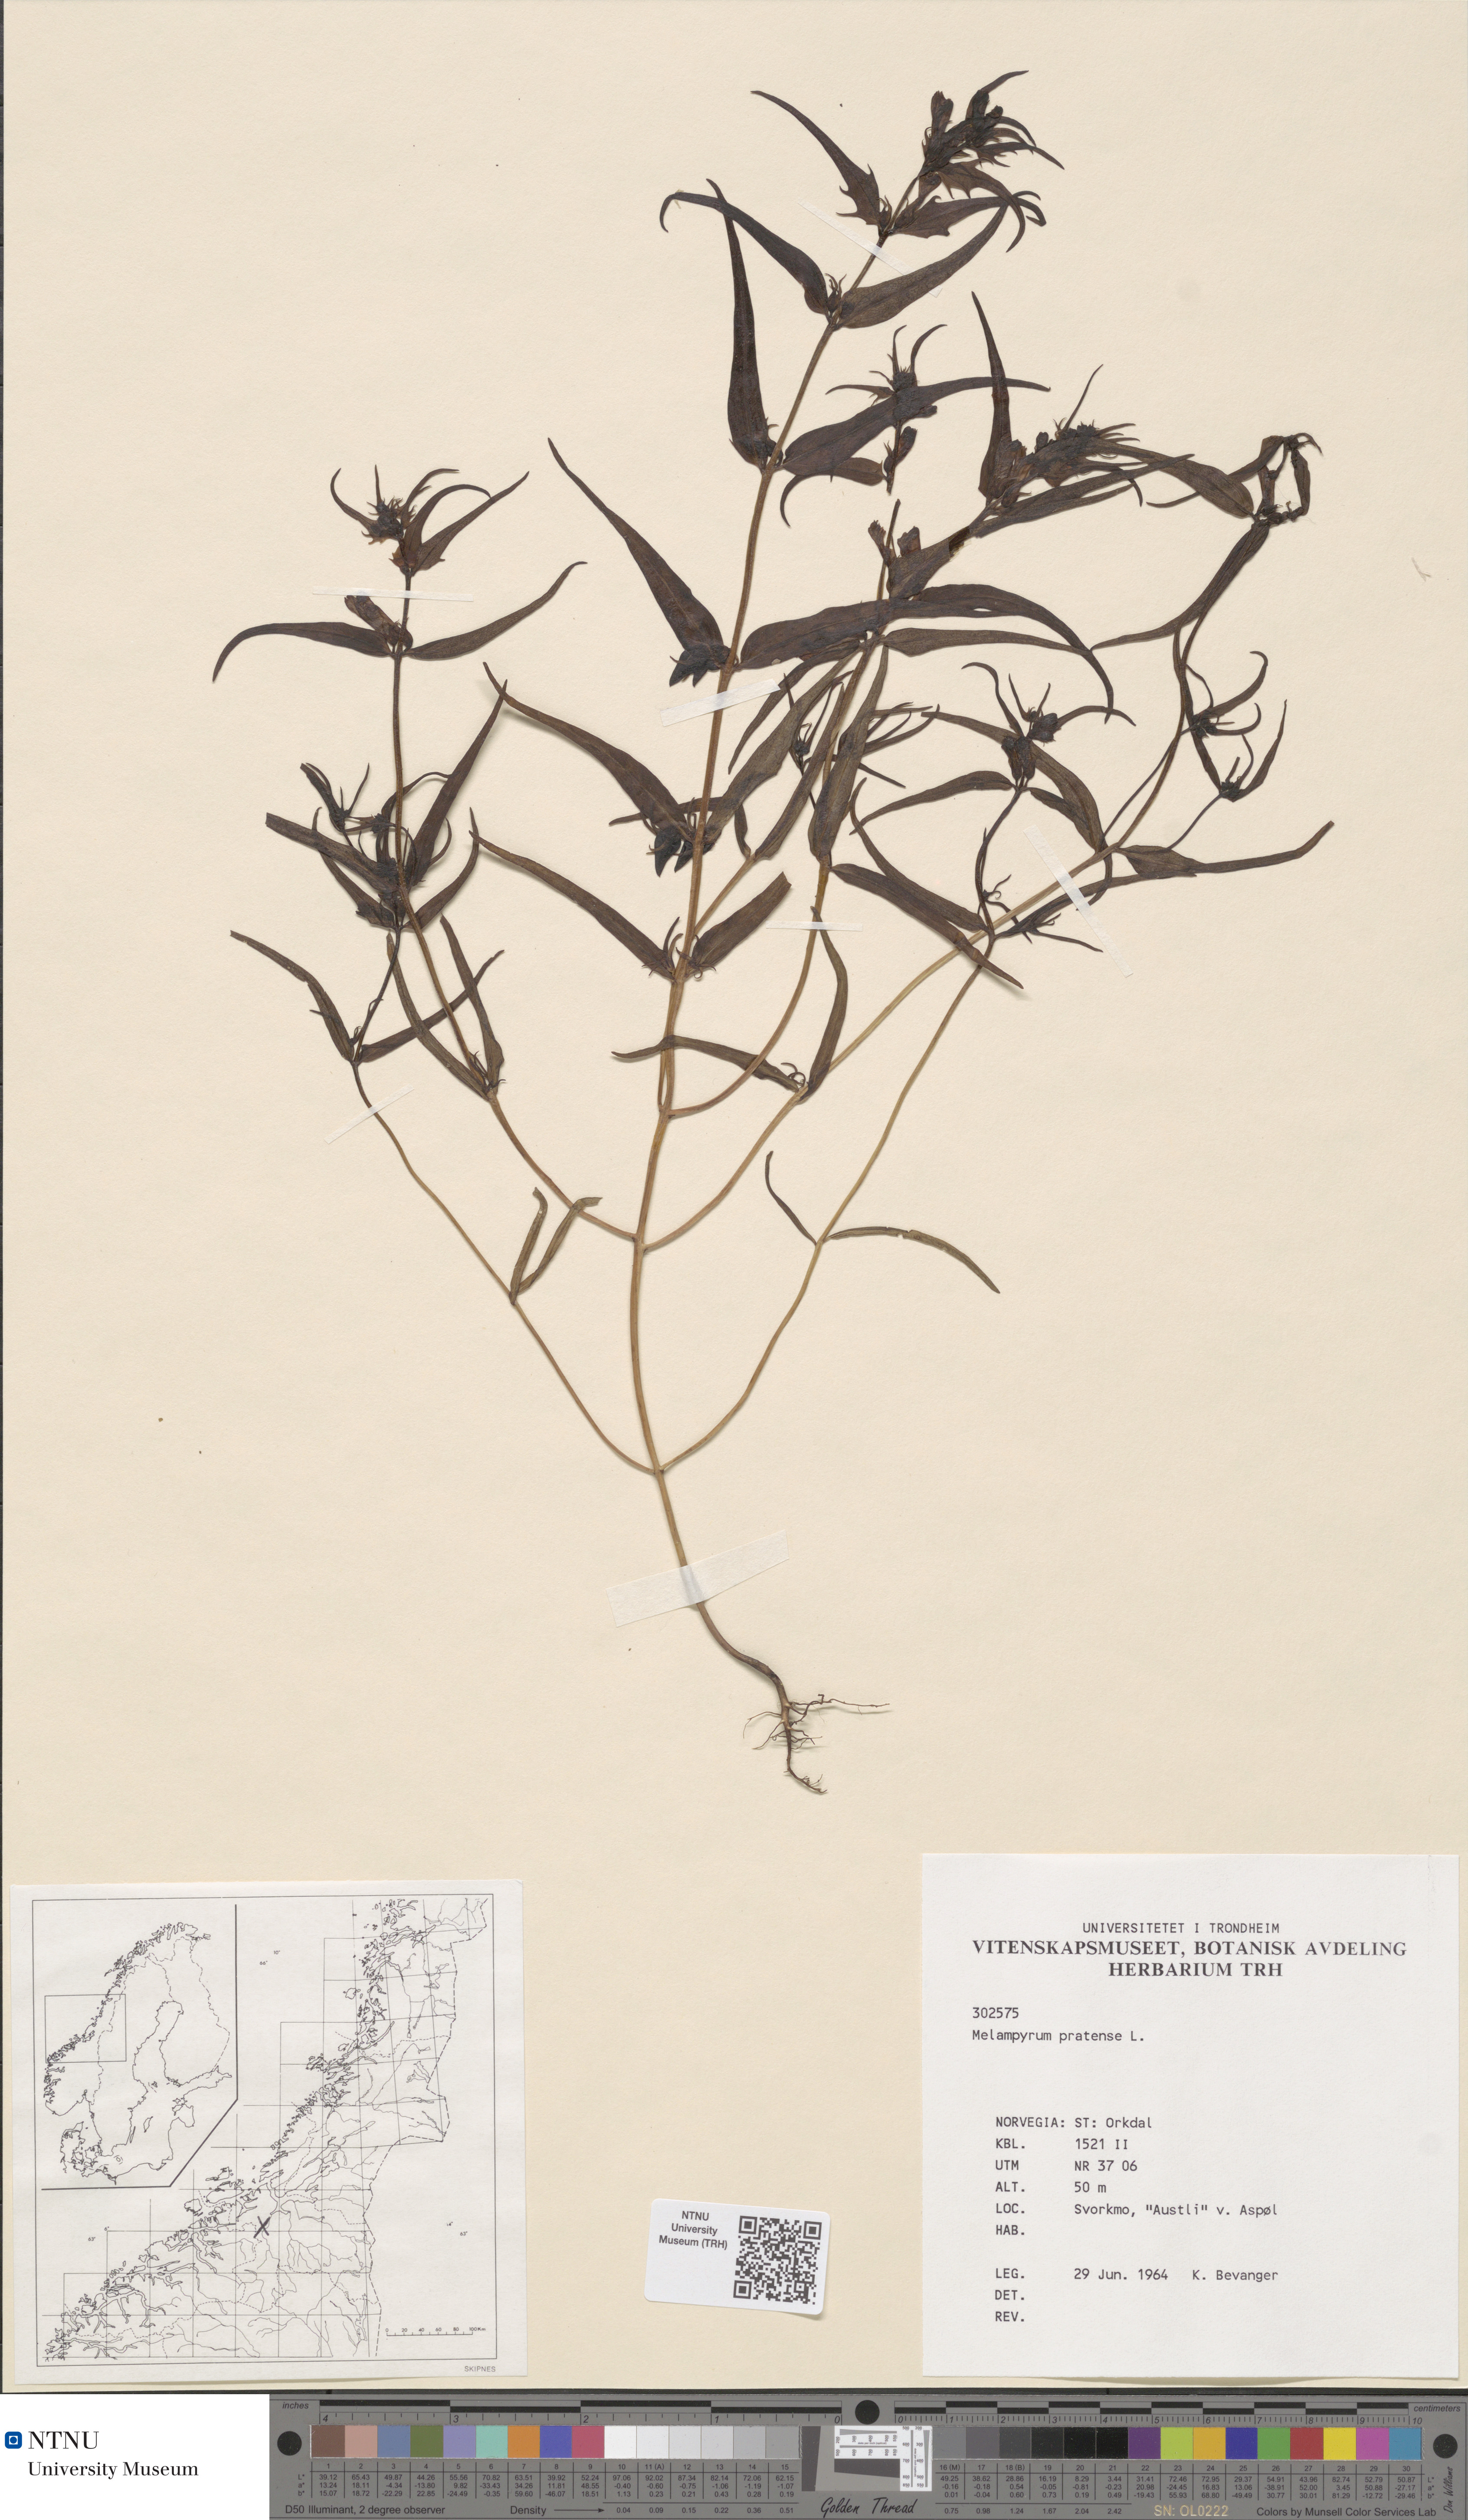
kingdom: Plantae
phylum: Tracheophyta
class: Magnoliopsida
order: Lamiales
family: Orobanchaceae
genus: Melampyrum
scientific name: Melampyrum pratense
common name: Common cow-wheat
